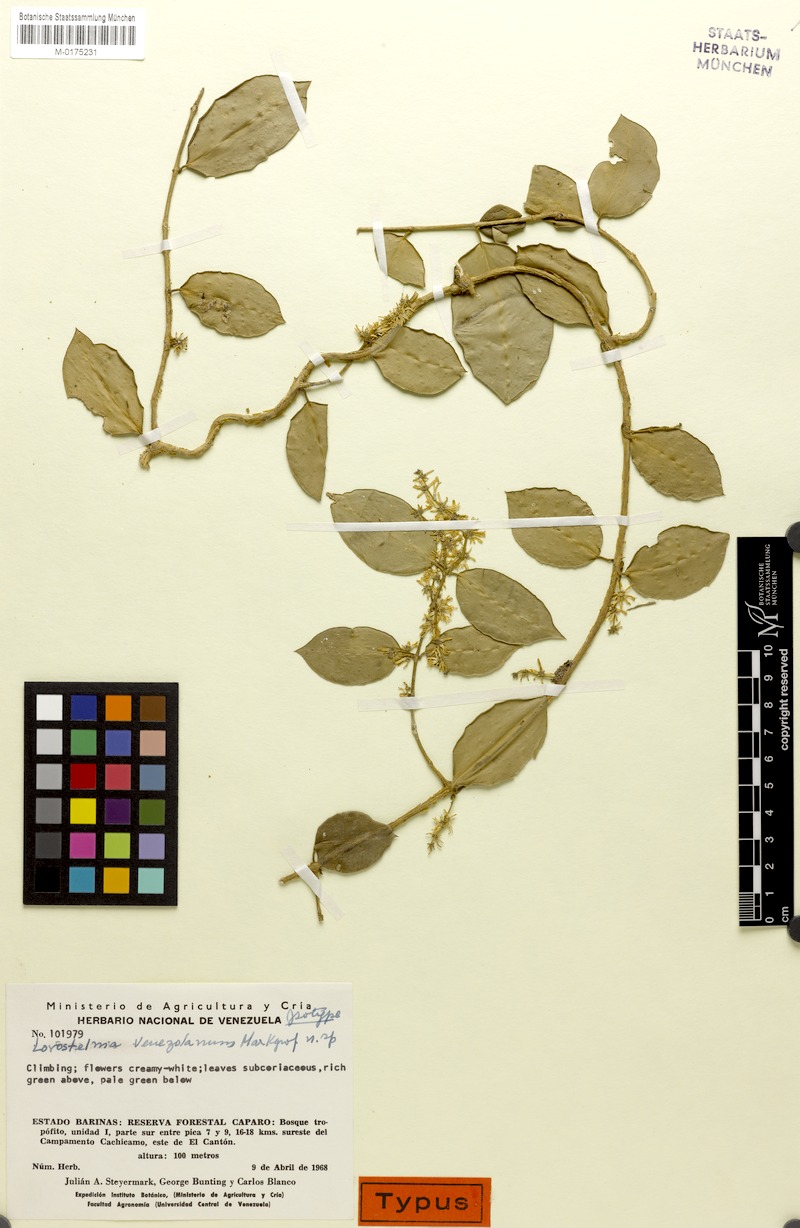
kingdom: Plantae
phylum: Tracheophyta
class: Magnoliopsida
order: Gentianales
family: Apocynaceae
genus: Tassadia
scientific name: Tassadia decalepis
